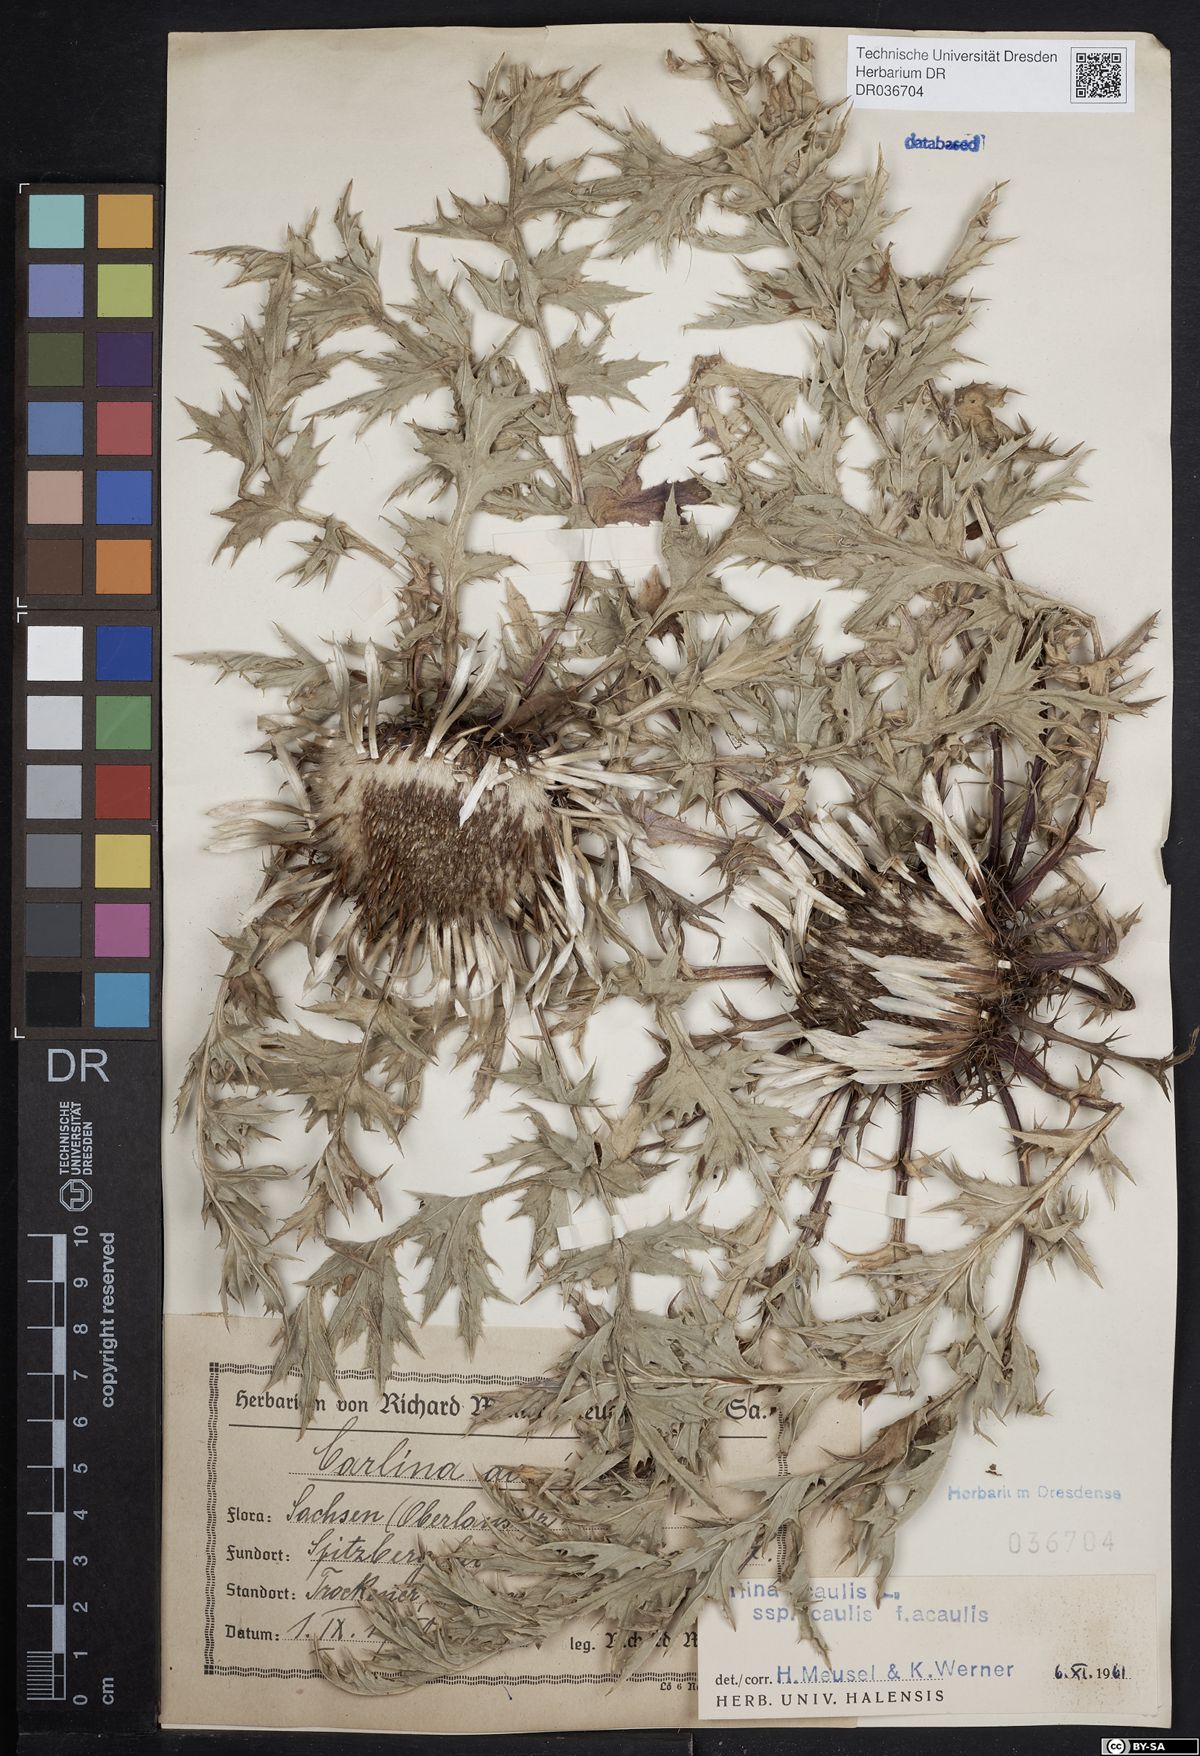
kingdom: Plantae
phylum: Tracheophyta
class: Magnoliopsida
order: Asterales
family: Asteraceae
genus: Carlina
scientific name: Carlina acaulis
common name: Stemless carline thistle
